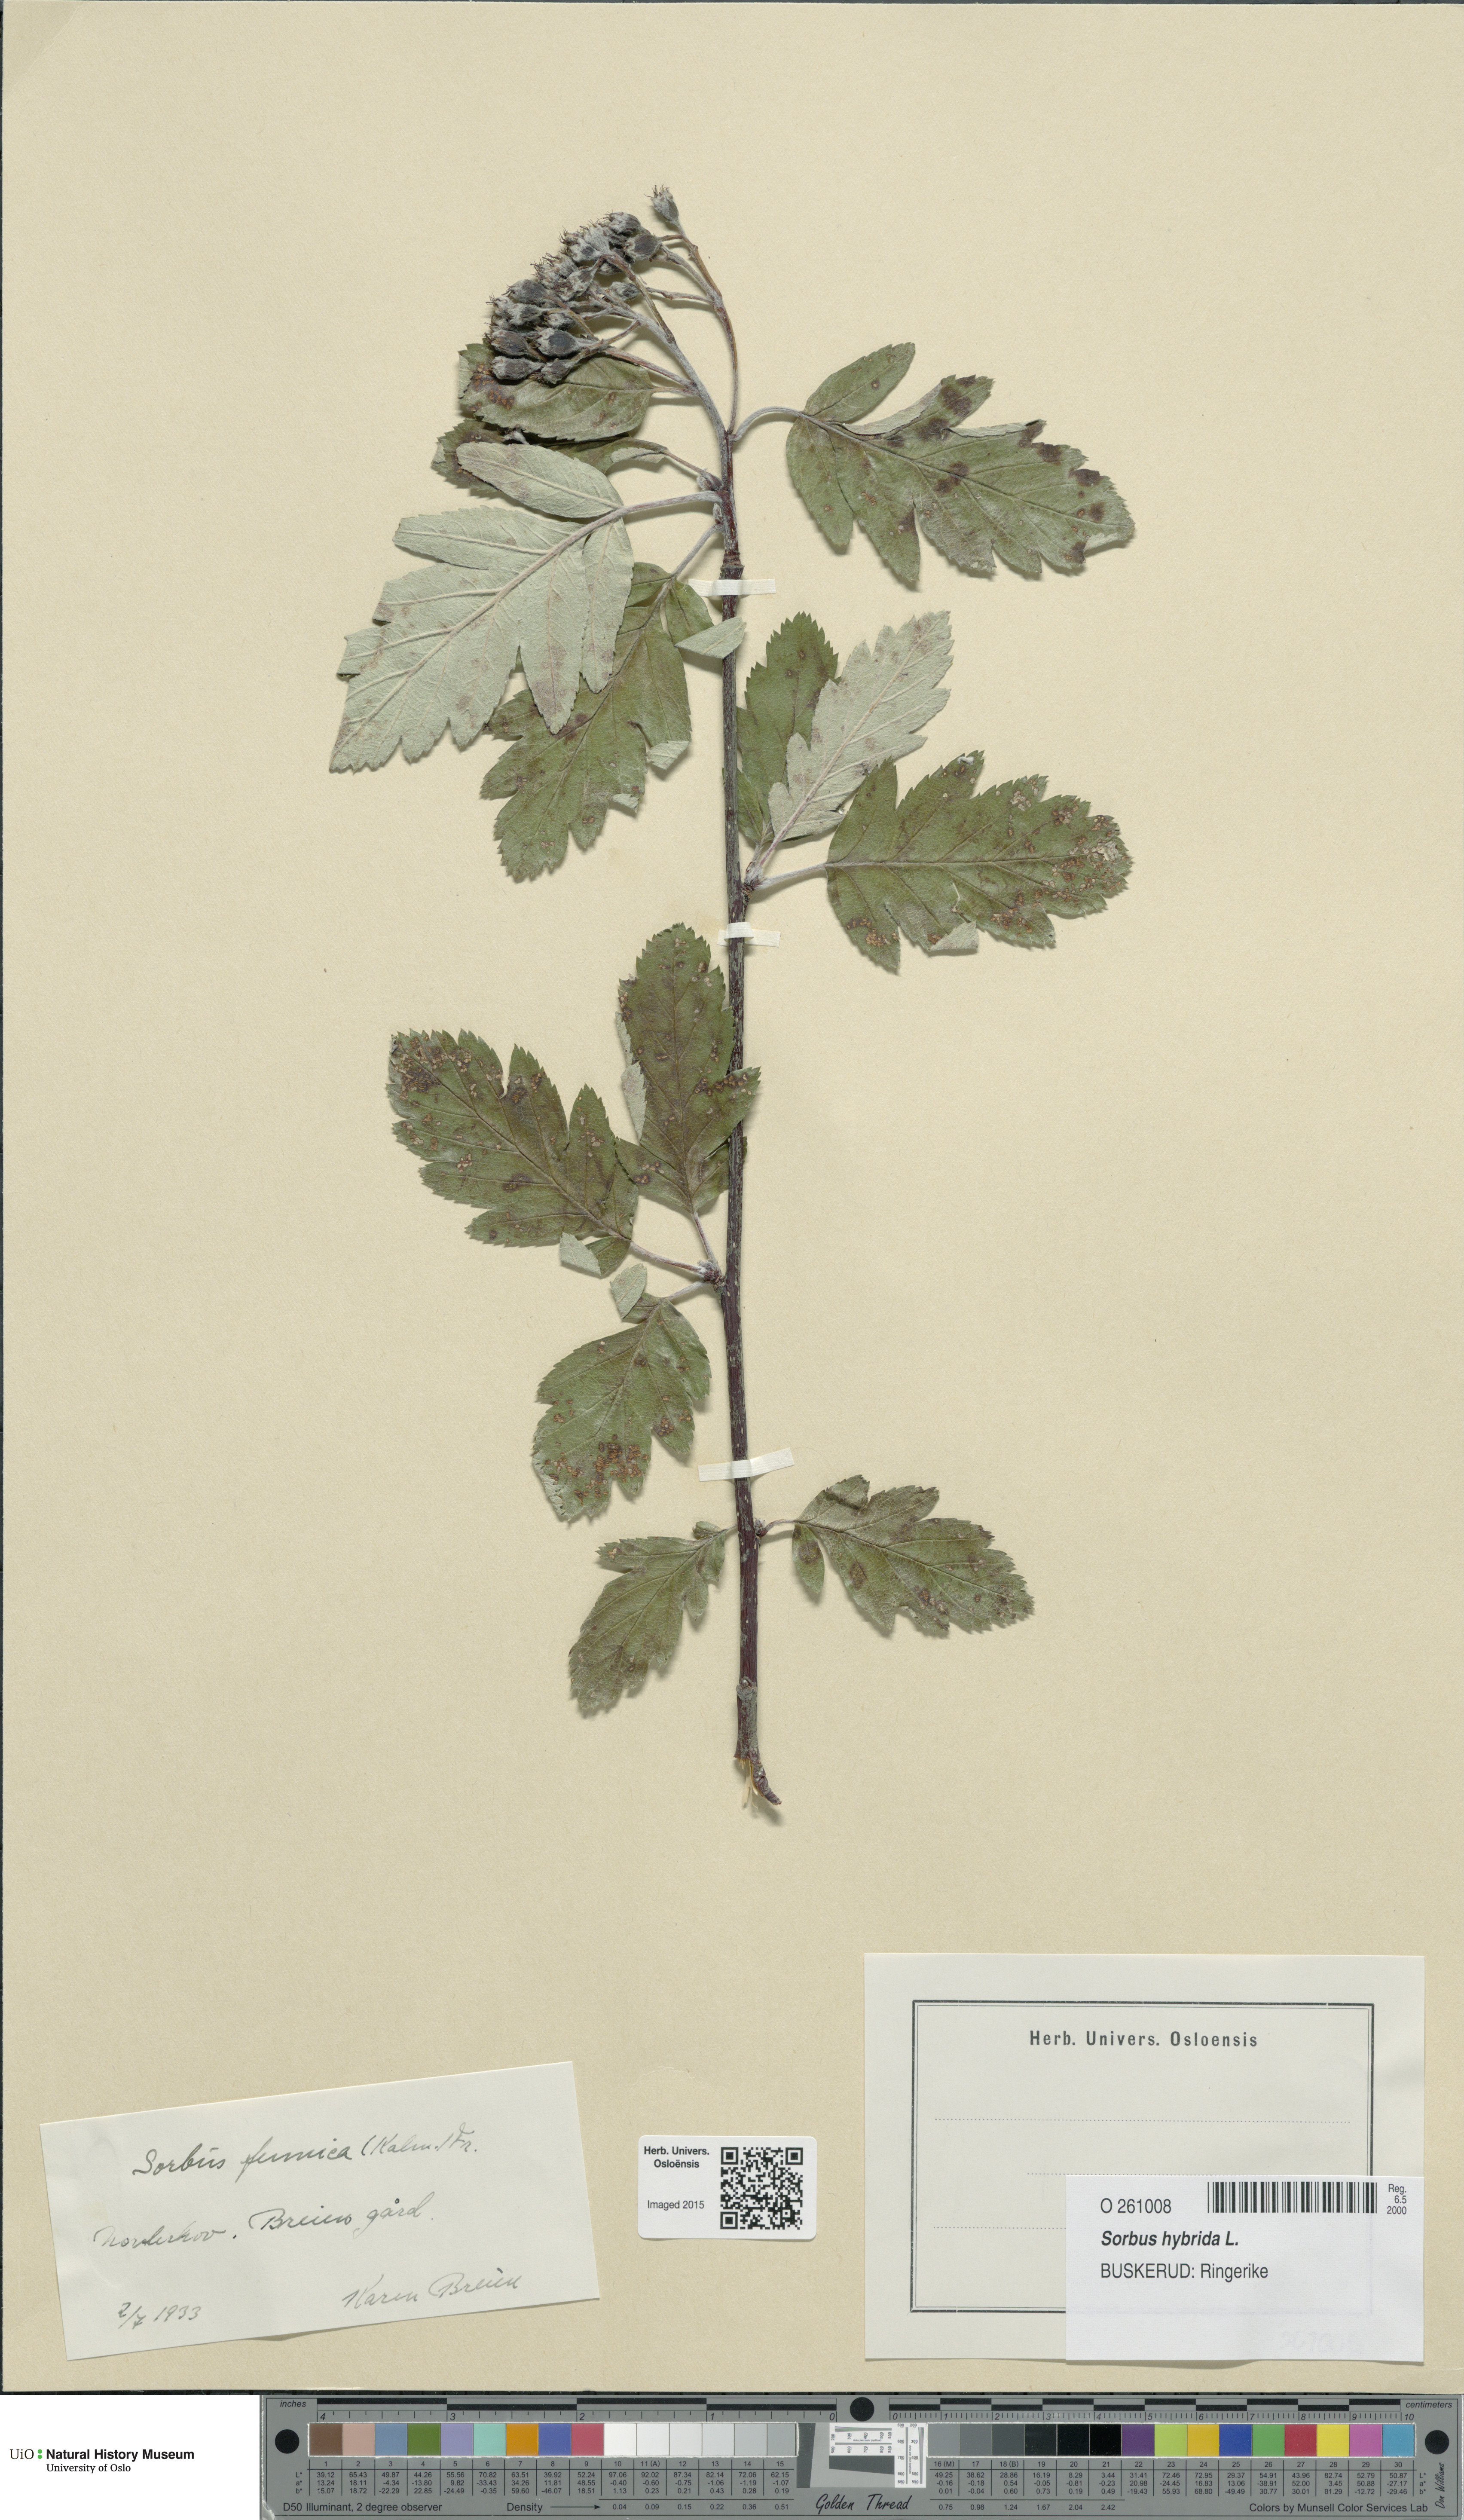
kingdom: Plantae
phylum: Tracheophyta
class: Magnoliopsida
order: Rosales
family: Rosaceae
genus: Hedlundia
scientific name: Hedlundia hybrida
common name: Swedish service-tree
